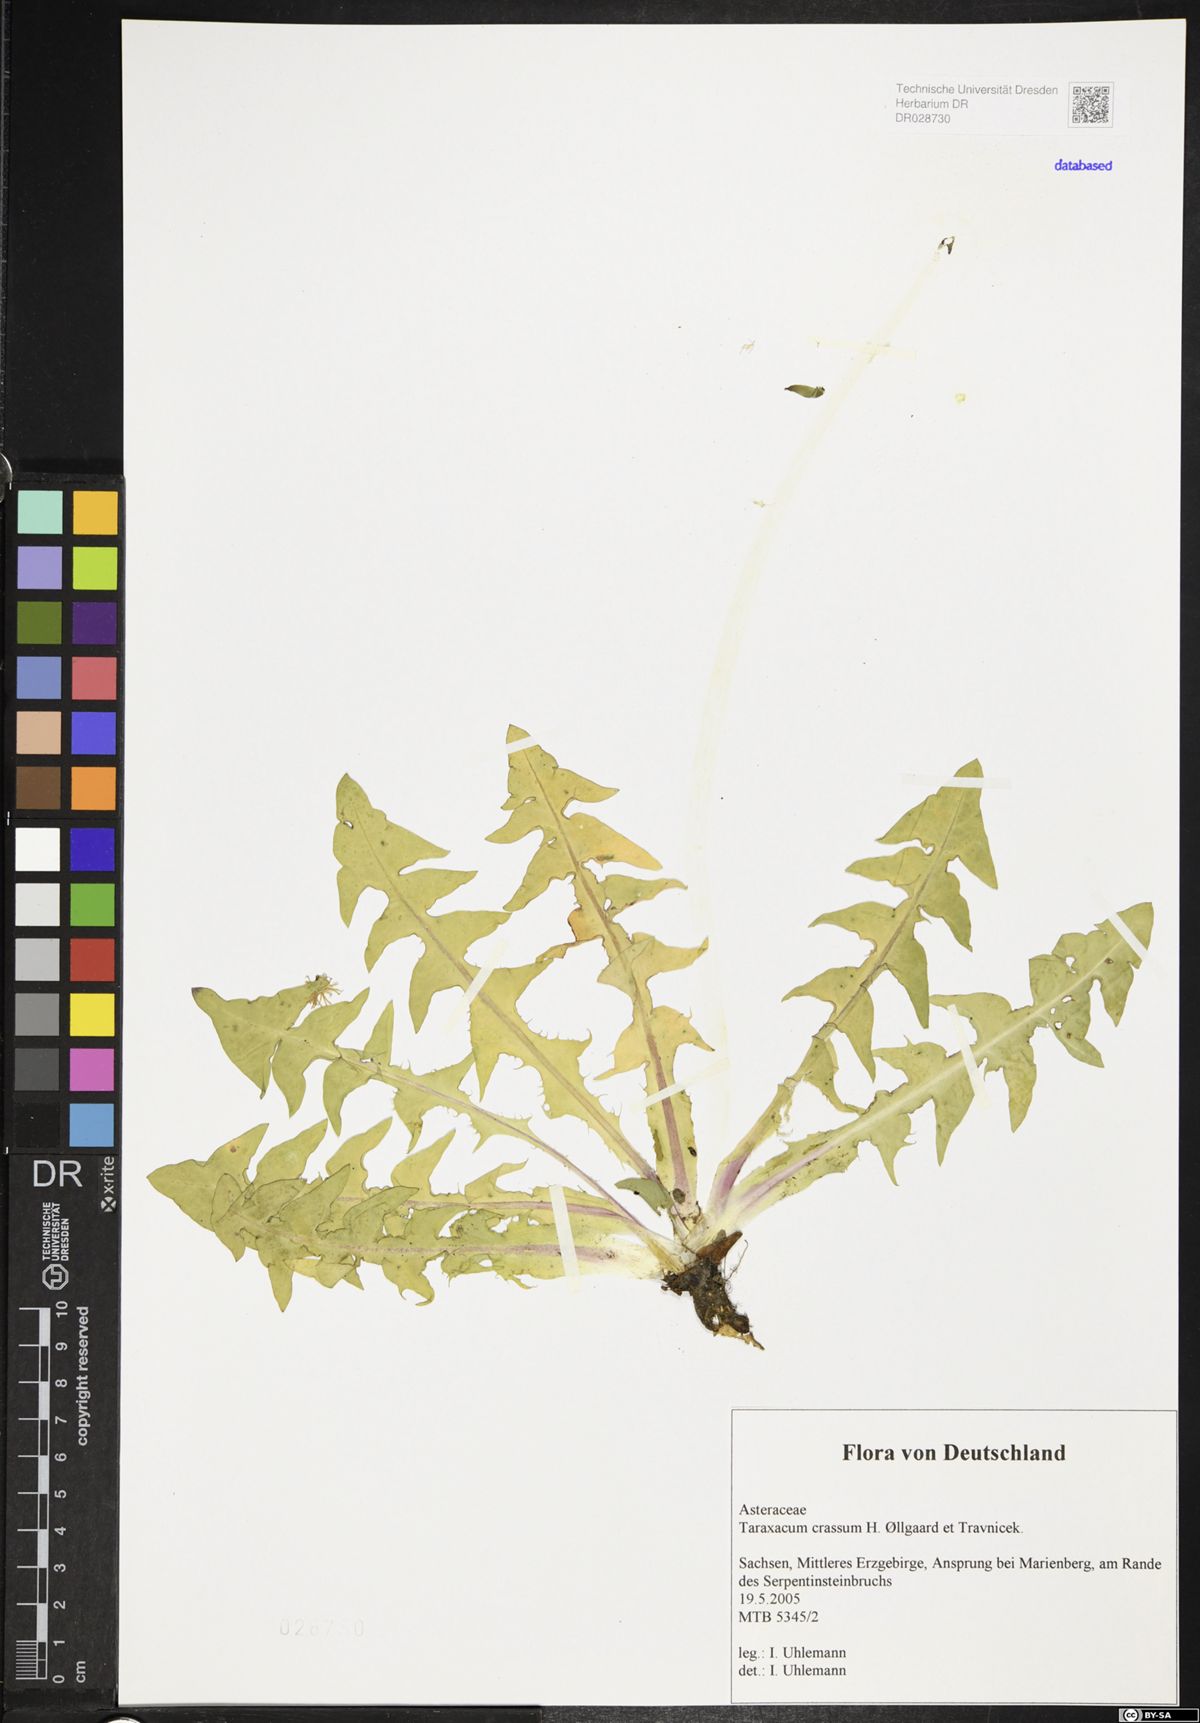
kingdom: Plantae
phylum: Tracheophyta
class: Magnoliopsida
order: Asterales
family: Asteraceae
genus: Taraxacum
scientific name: Taraxacum crassum
